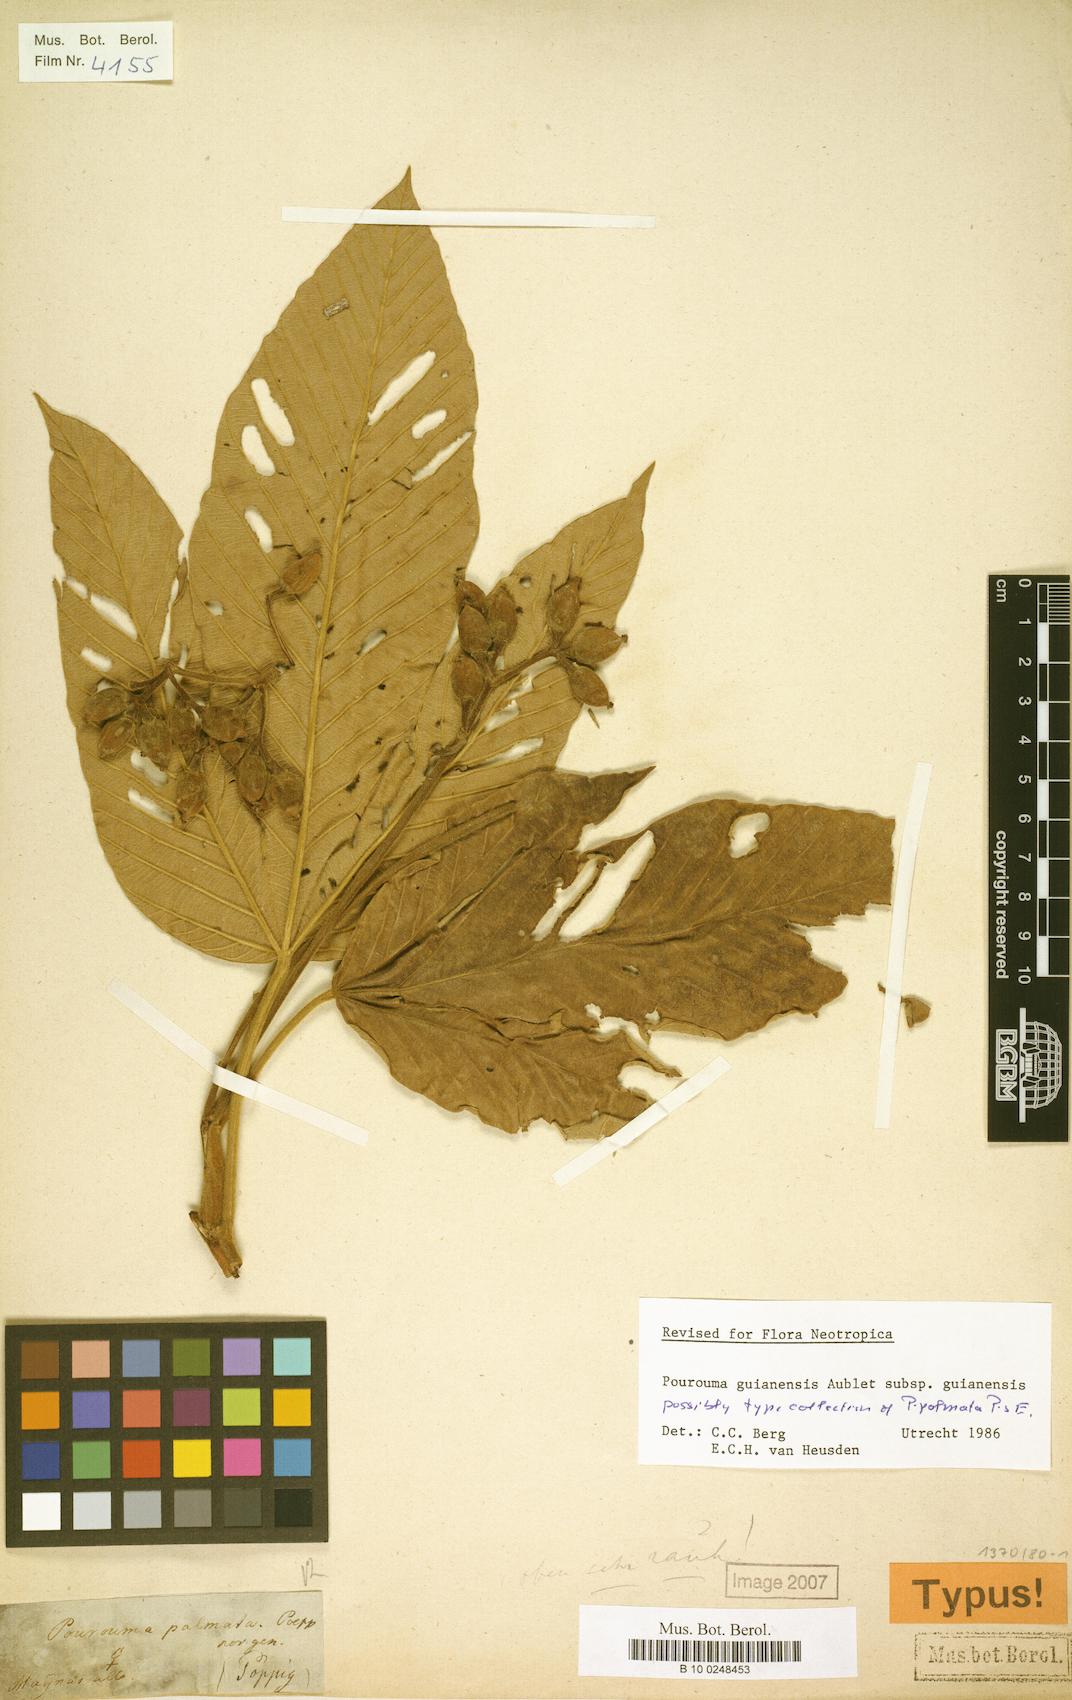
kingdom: Plantae
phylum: Tracheophyta
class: Magnoliopsida
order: Rosales
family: Urticaceae
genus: Pourouma
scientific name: Pourouma guianensis
